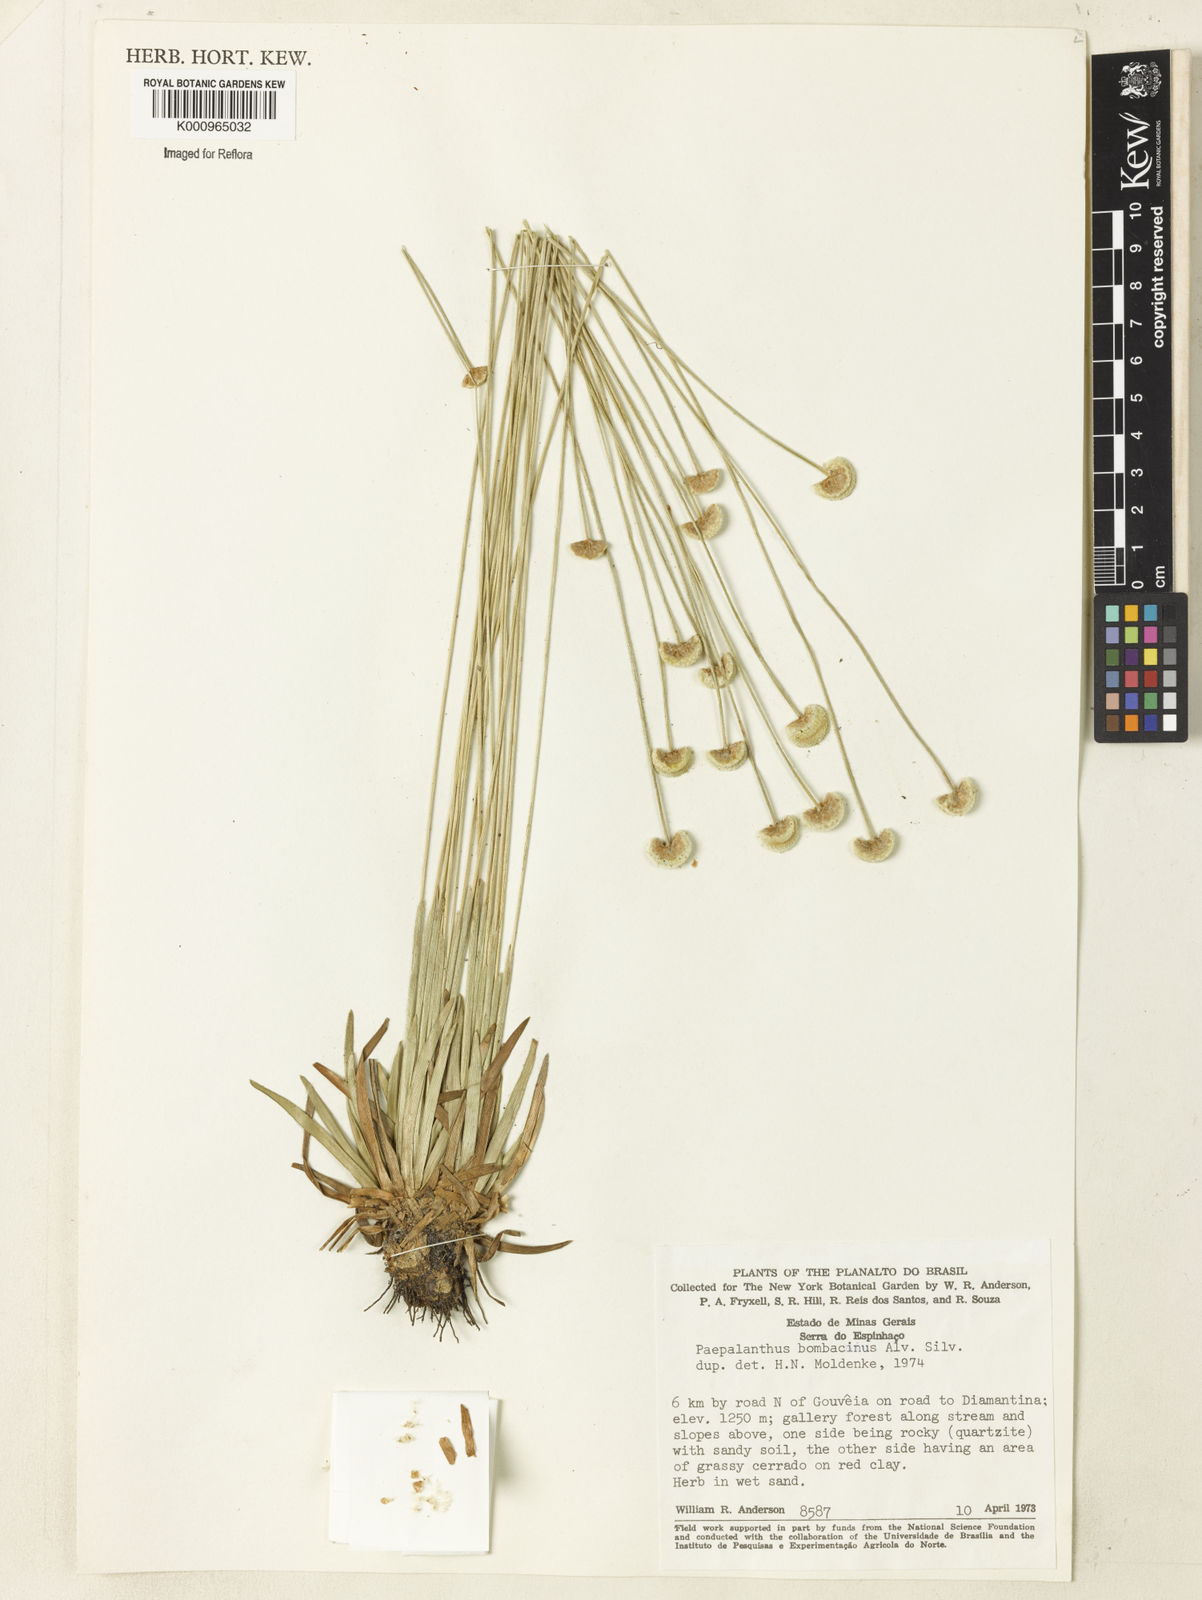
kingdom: Plantae
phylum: Tracheophyta
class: Liliopsida
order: Poales
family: Eriocaulaceae
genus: Paepalanthus
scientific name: Paepalanthus bombacinus
